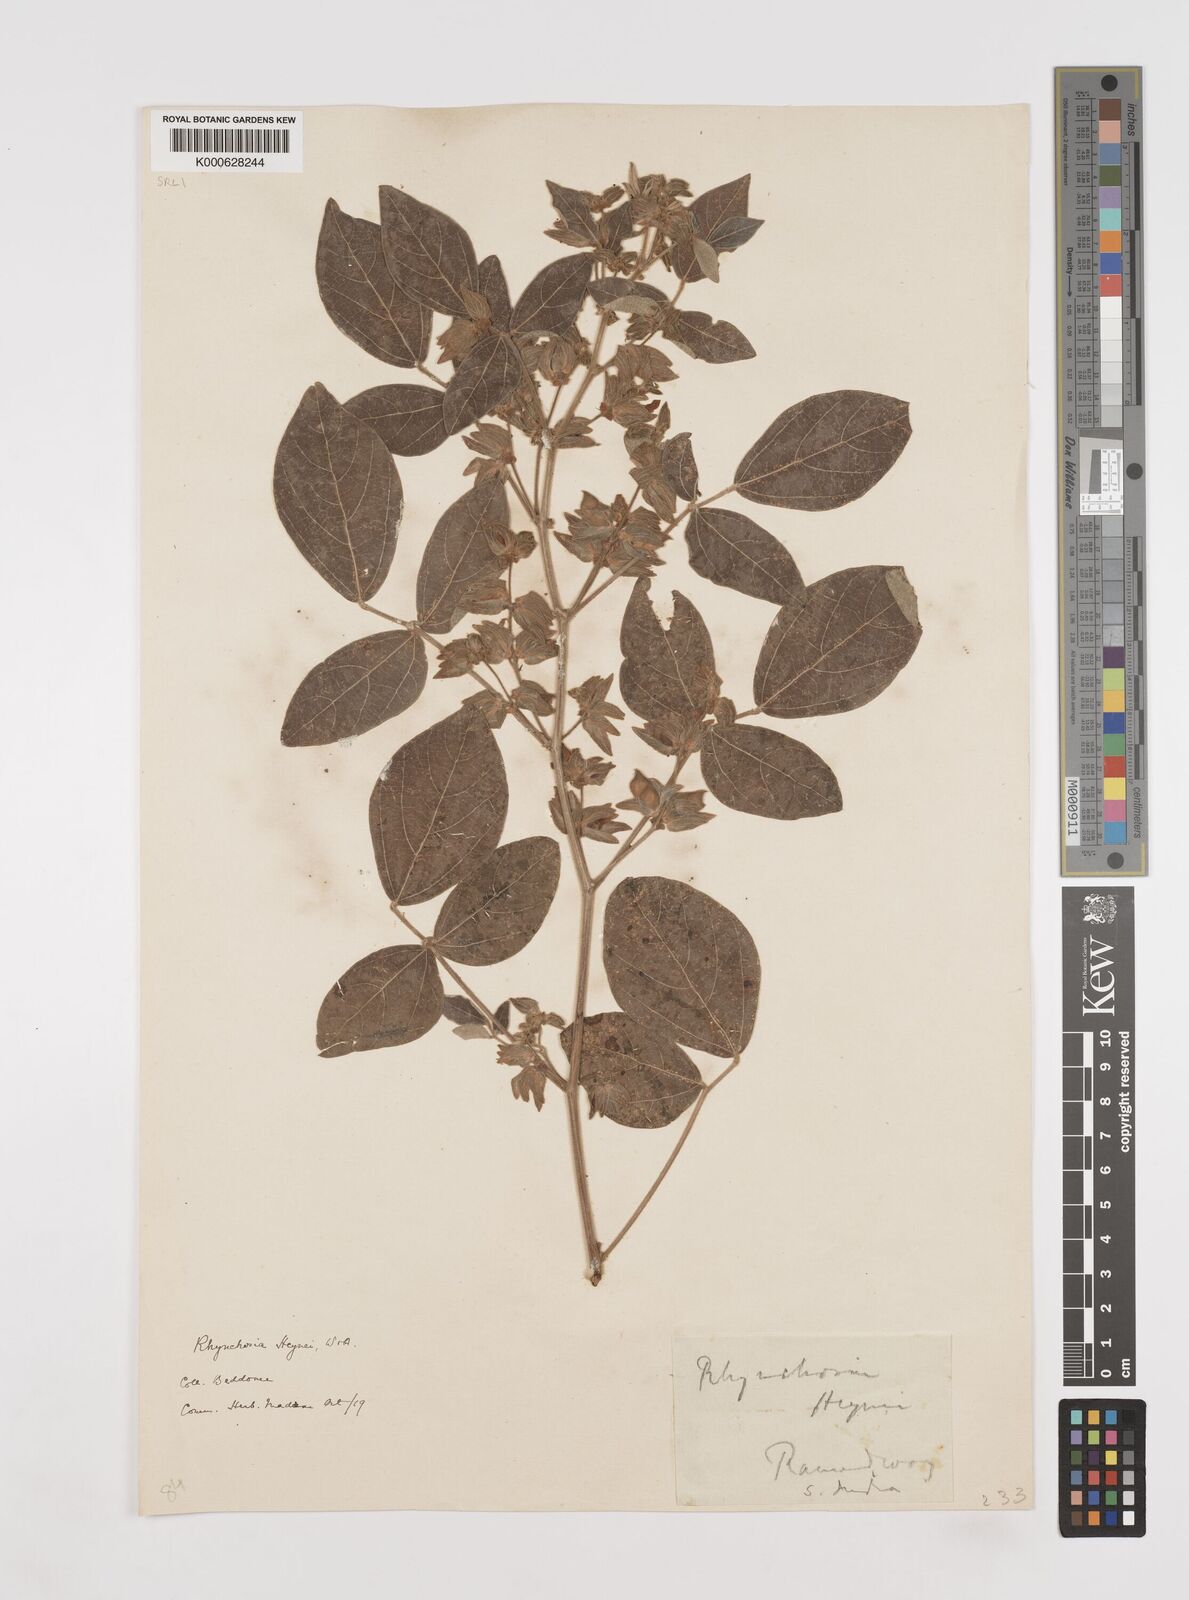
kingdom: Plantae
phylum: Tracheophyta
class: Magnoliopsida
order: Fabales
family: Fabaceae
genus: Rhynchosia
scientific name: Rhynchosia heynei
